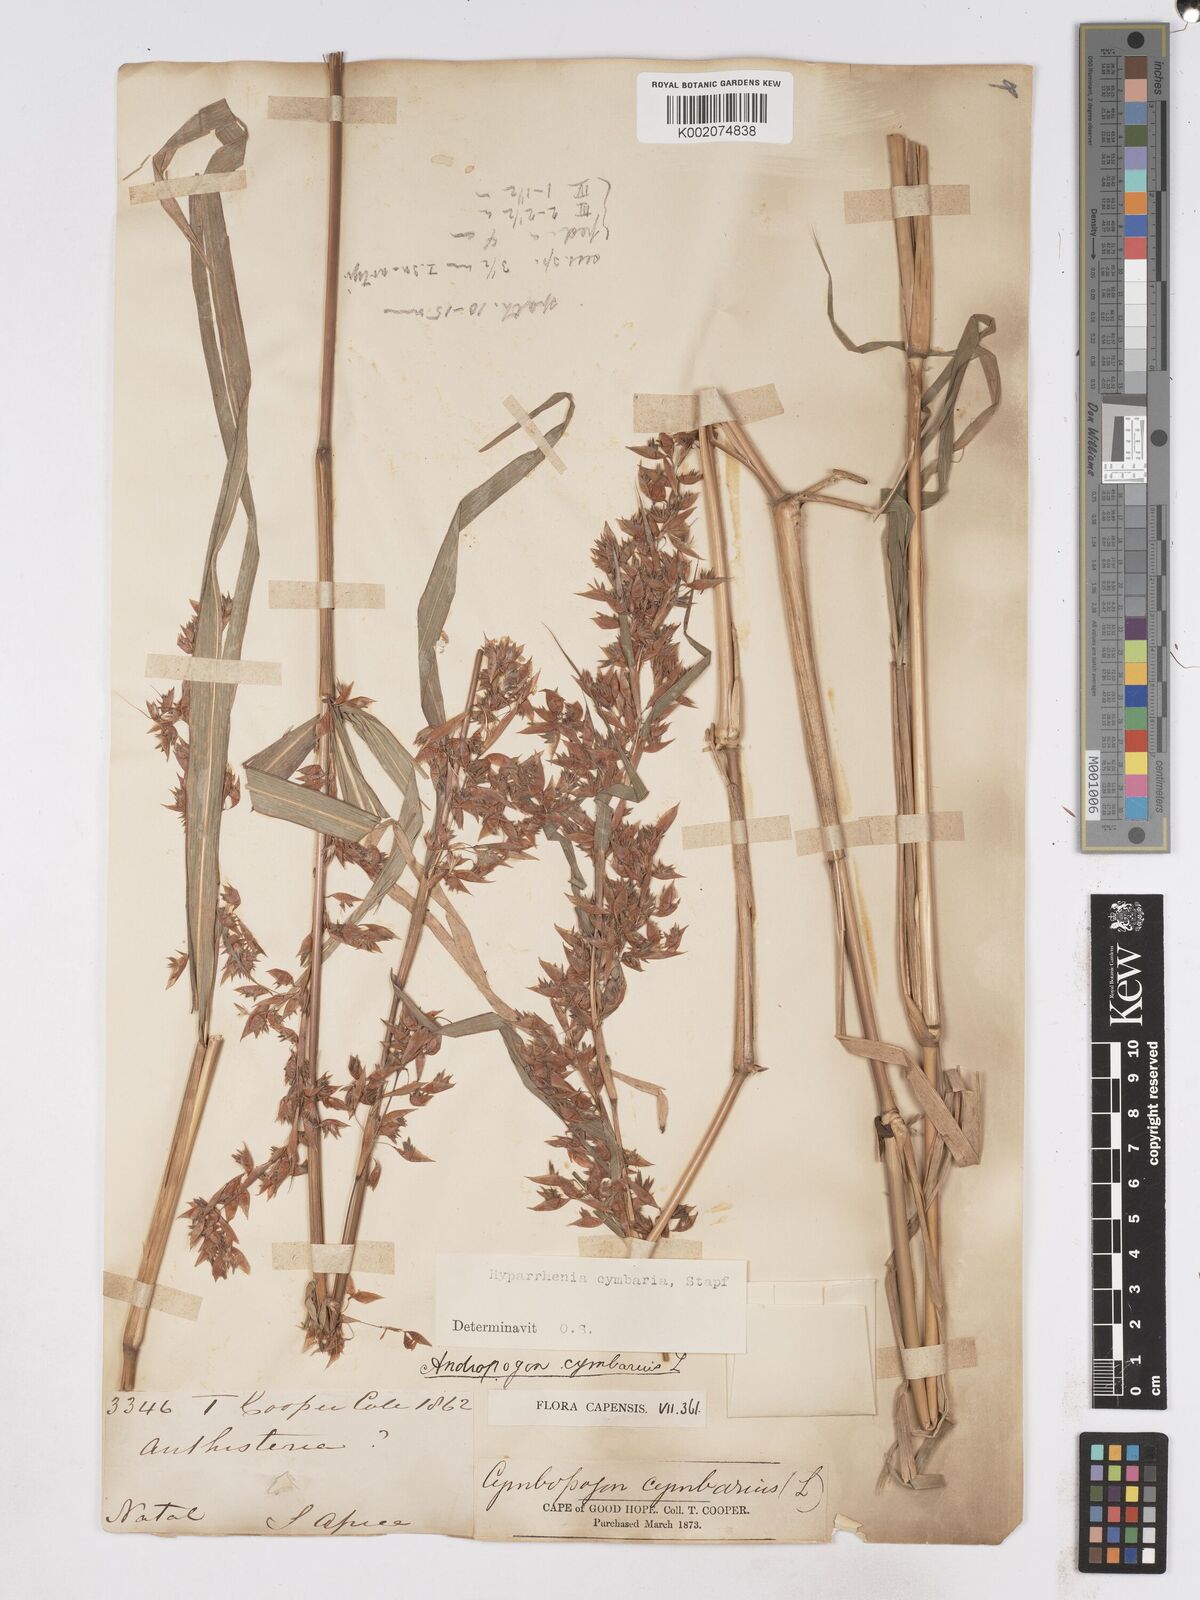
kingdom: Plantae
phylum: Tracheophyta
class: Liliopsida
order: Poales
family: Poaceae
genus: Hyparrhenia
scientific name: Hyparrhenia cymbaria
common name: Boat thatching grass
